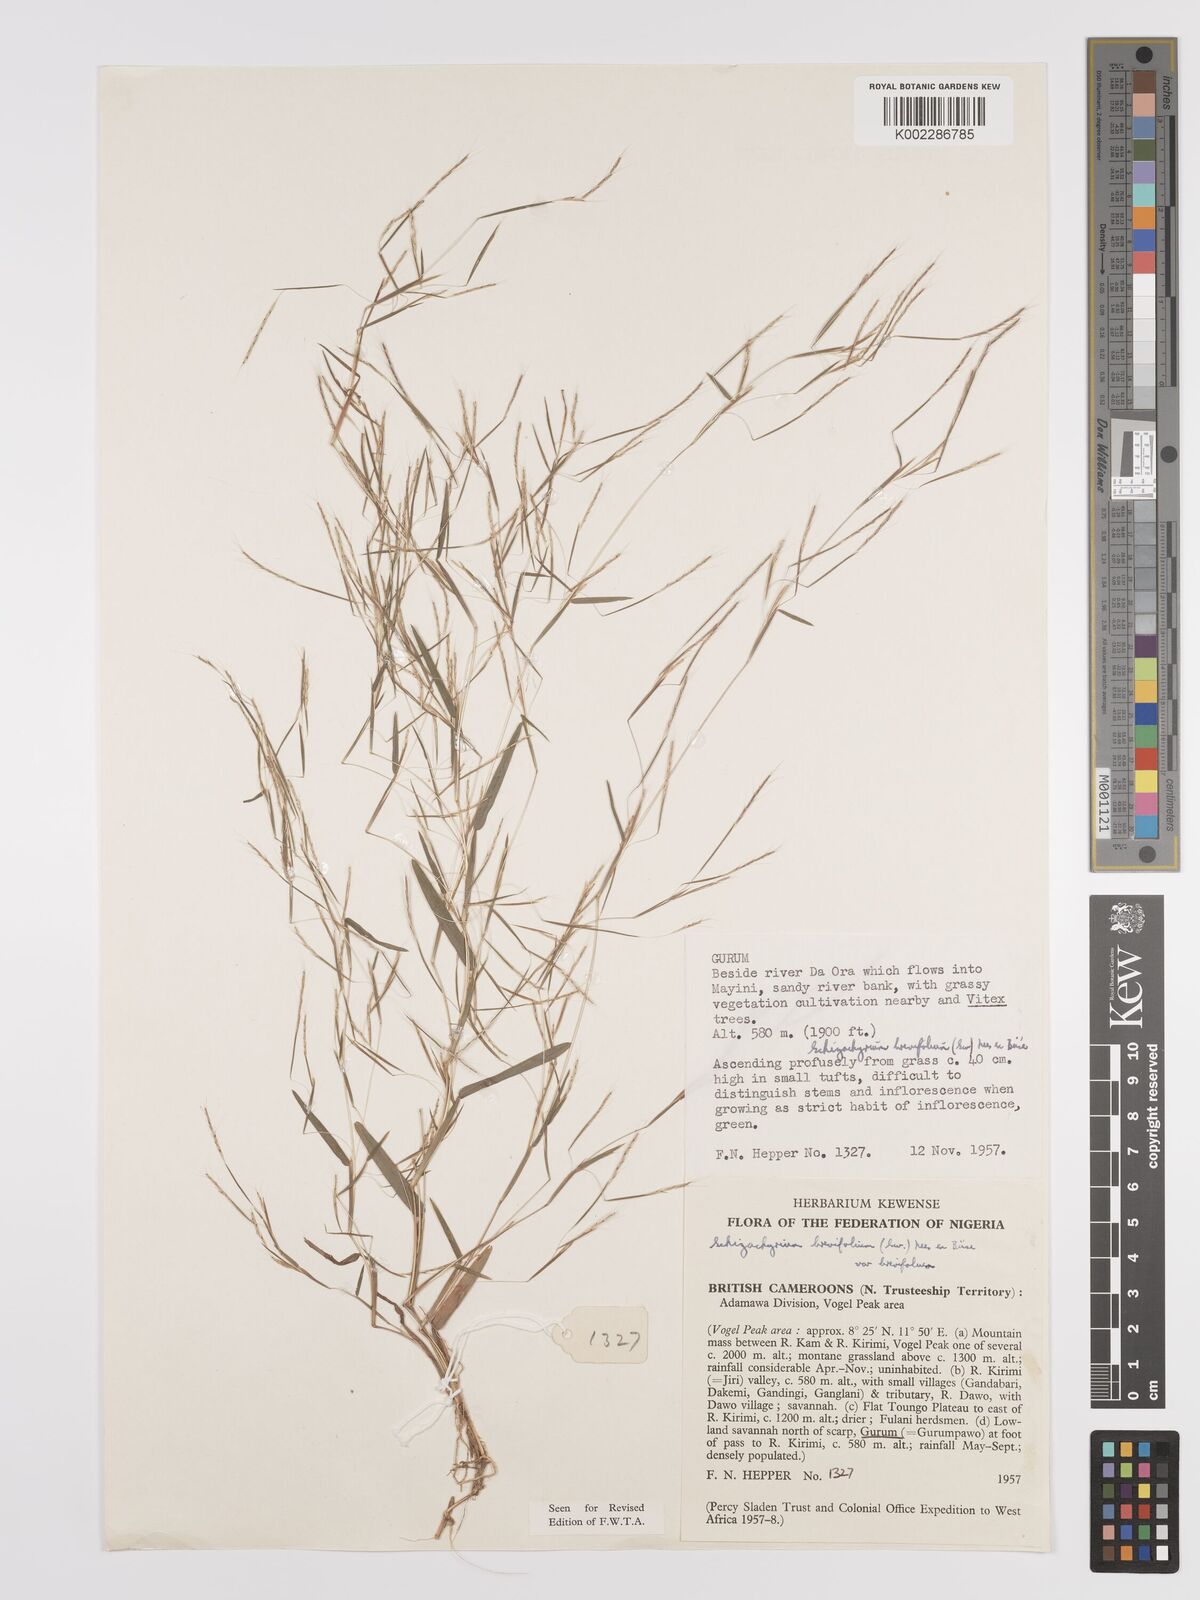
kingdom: Plantae
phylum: Tracheophyta
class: Liliopsida
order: Poales
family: Poaceae
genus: Schizachyrium
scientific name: Schizachyrium brevifolium
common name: Serillo dulce
